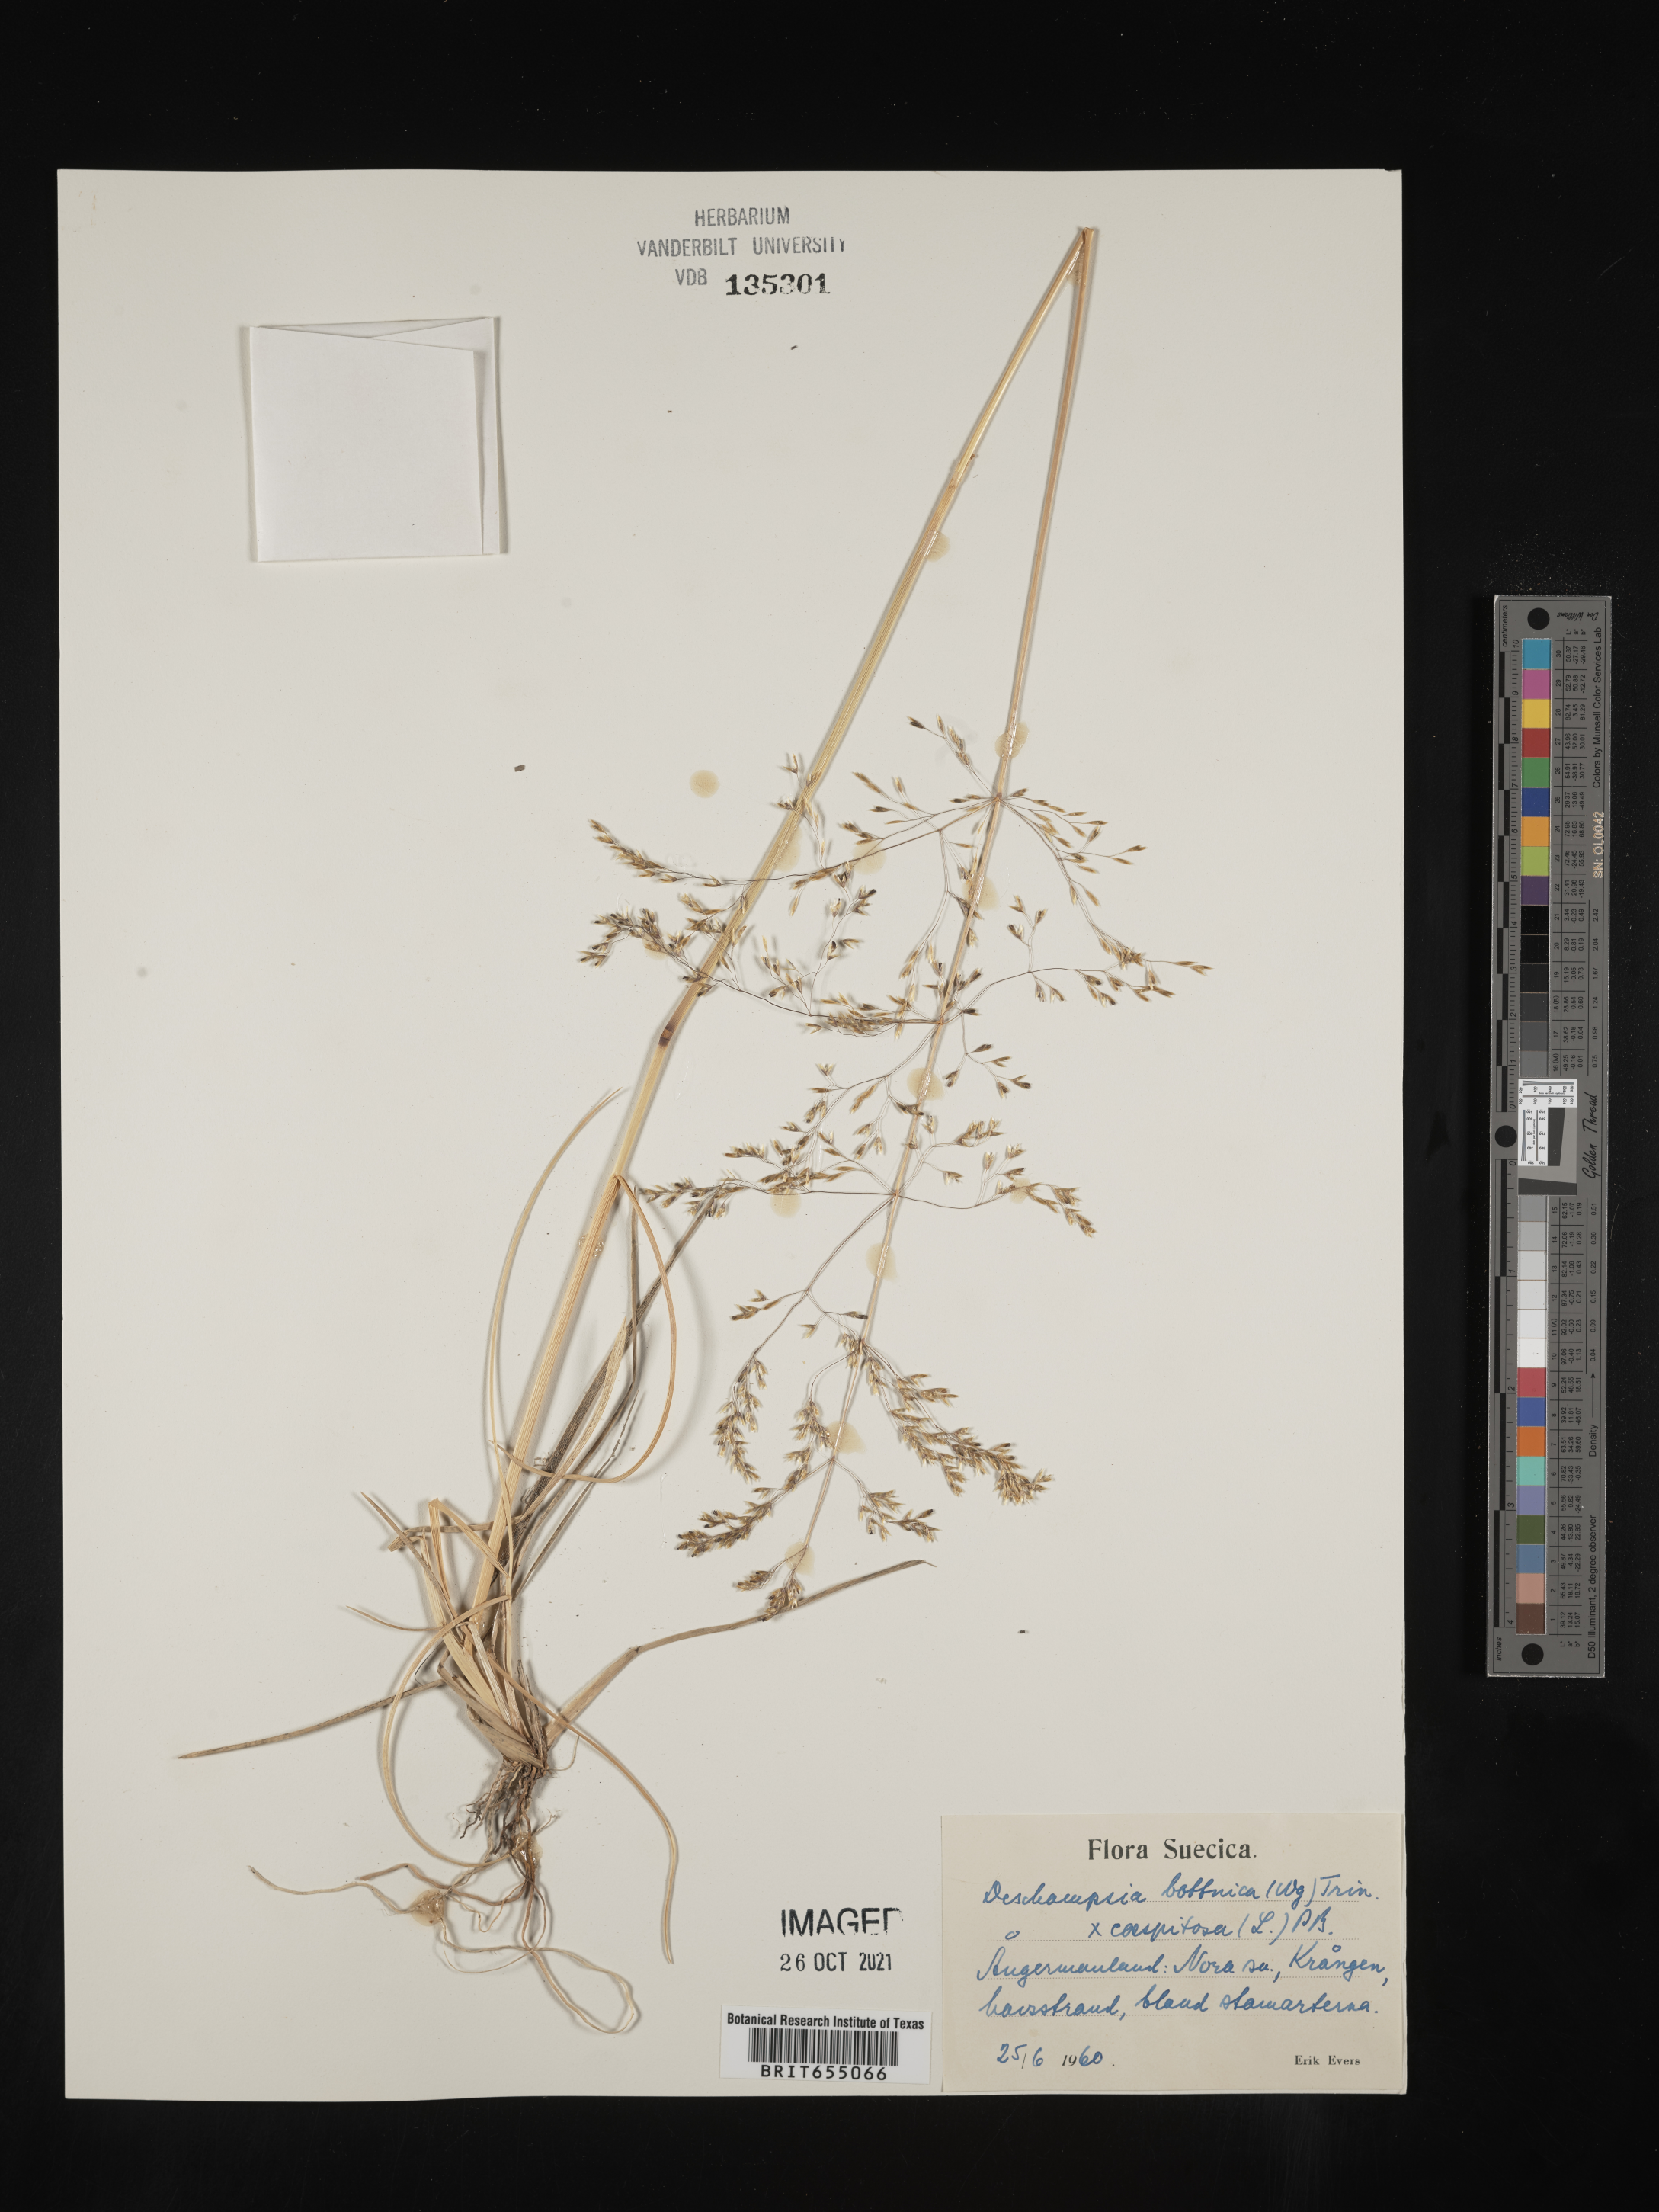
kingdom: Plantae
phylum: Tracheophyta
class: Liliopsida
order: Poales
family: Poaceae
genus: Deschampsia
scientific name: Deschampsia
